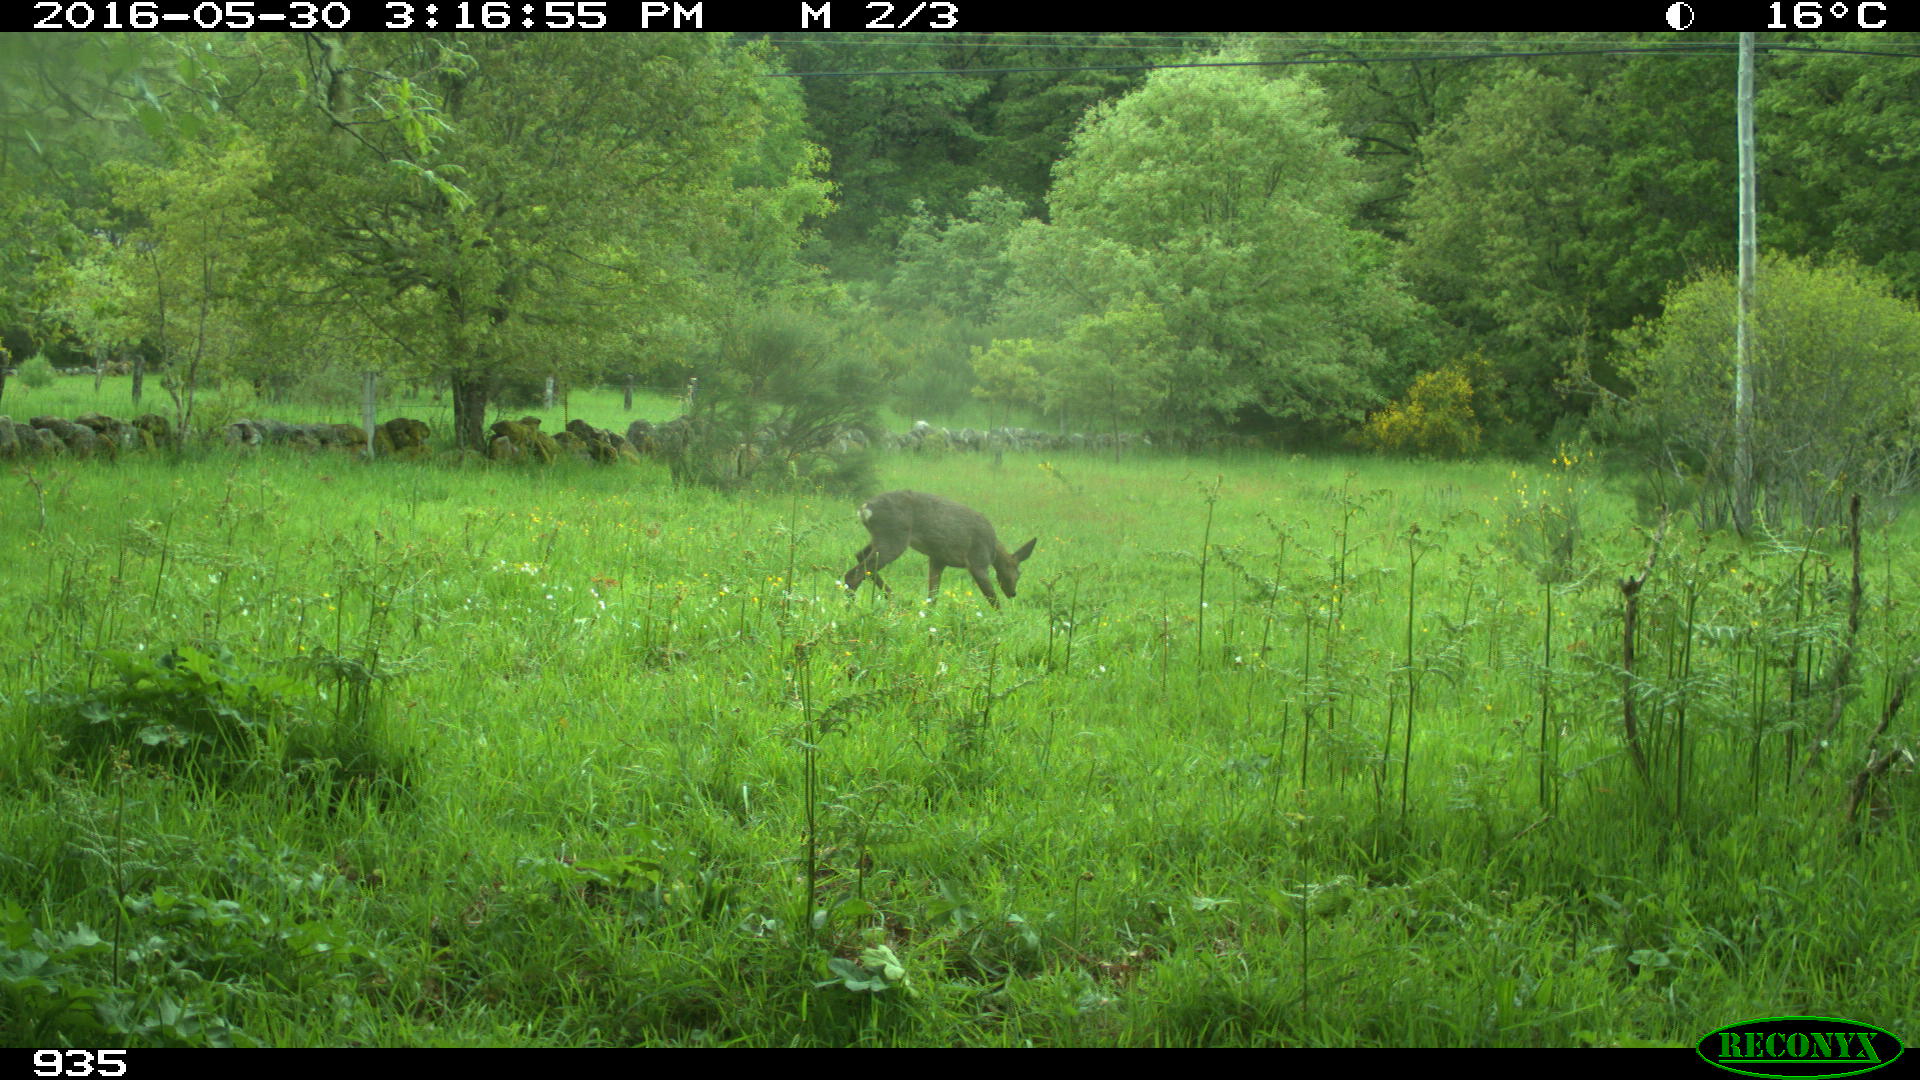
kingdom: Animalia
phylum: Chordata
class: Mammalia
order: Artiodactyla
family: Cervidae
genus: Capreolus
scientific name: Capreolus capreolus
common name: Western roe deer
